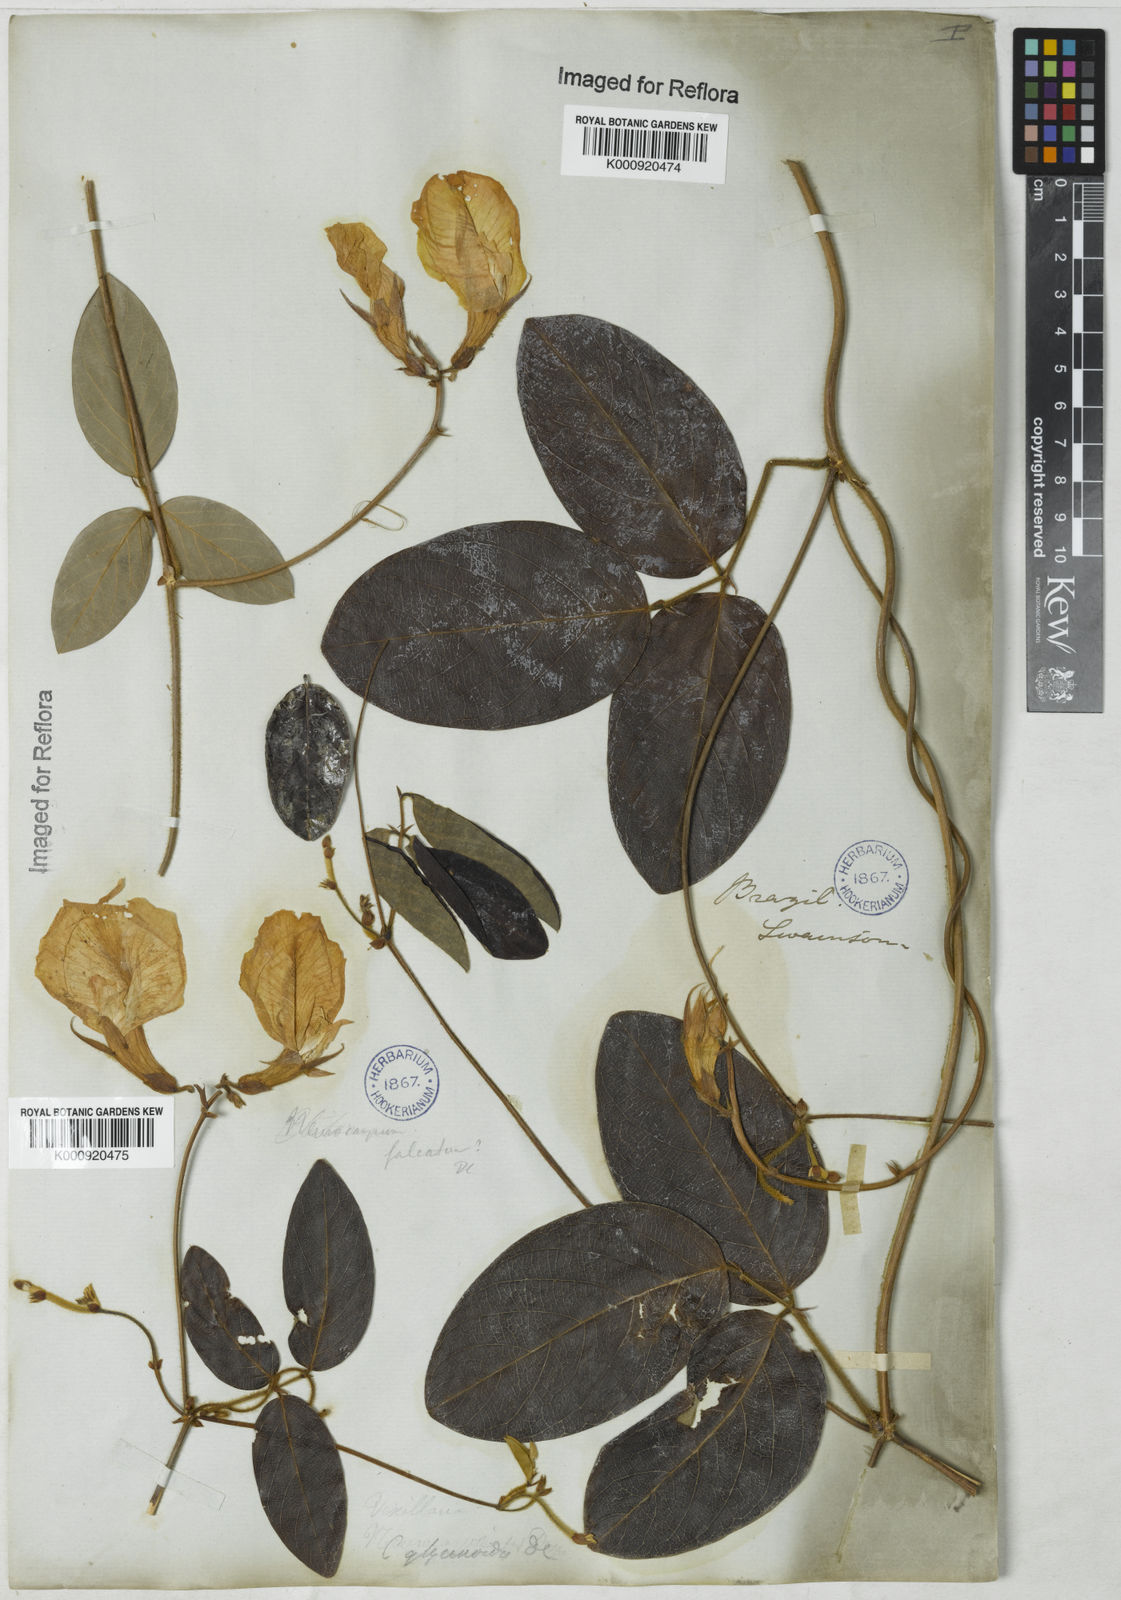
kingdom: Plantae
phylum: Tracheophyta
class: Magnoliopsida
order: Fabales
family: Fabaceae
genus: Clitoria
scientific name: Clitoria
